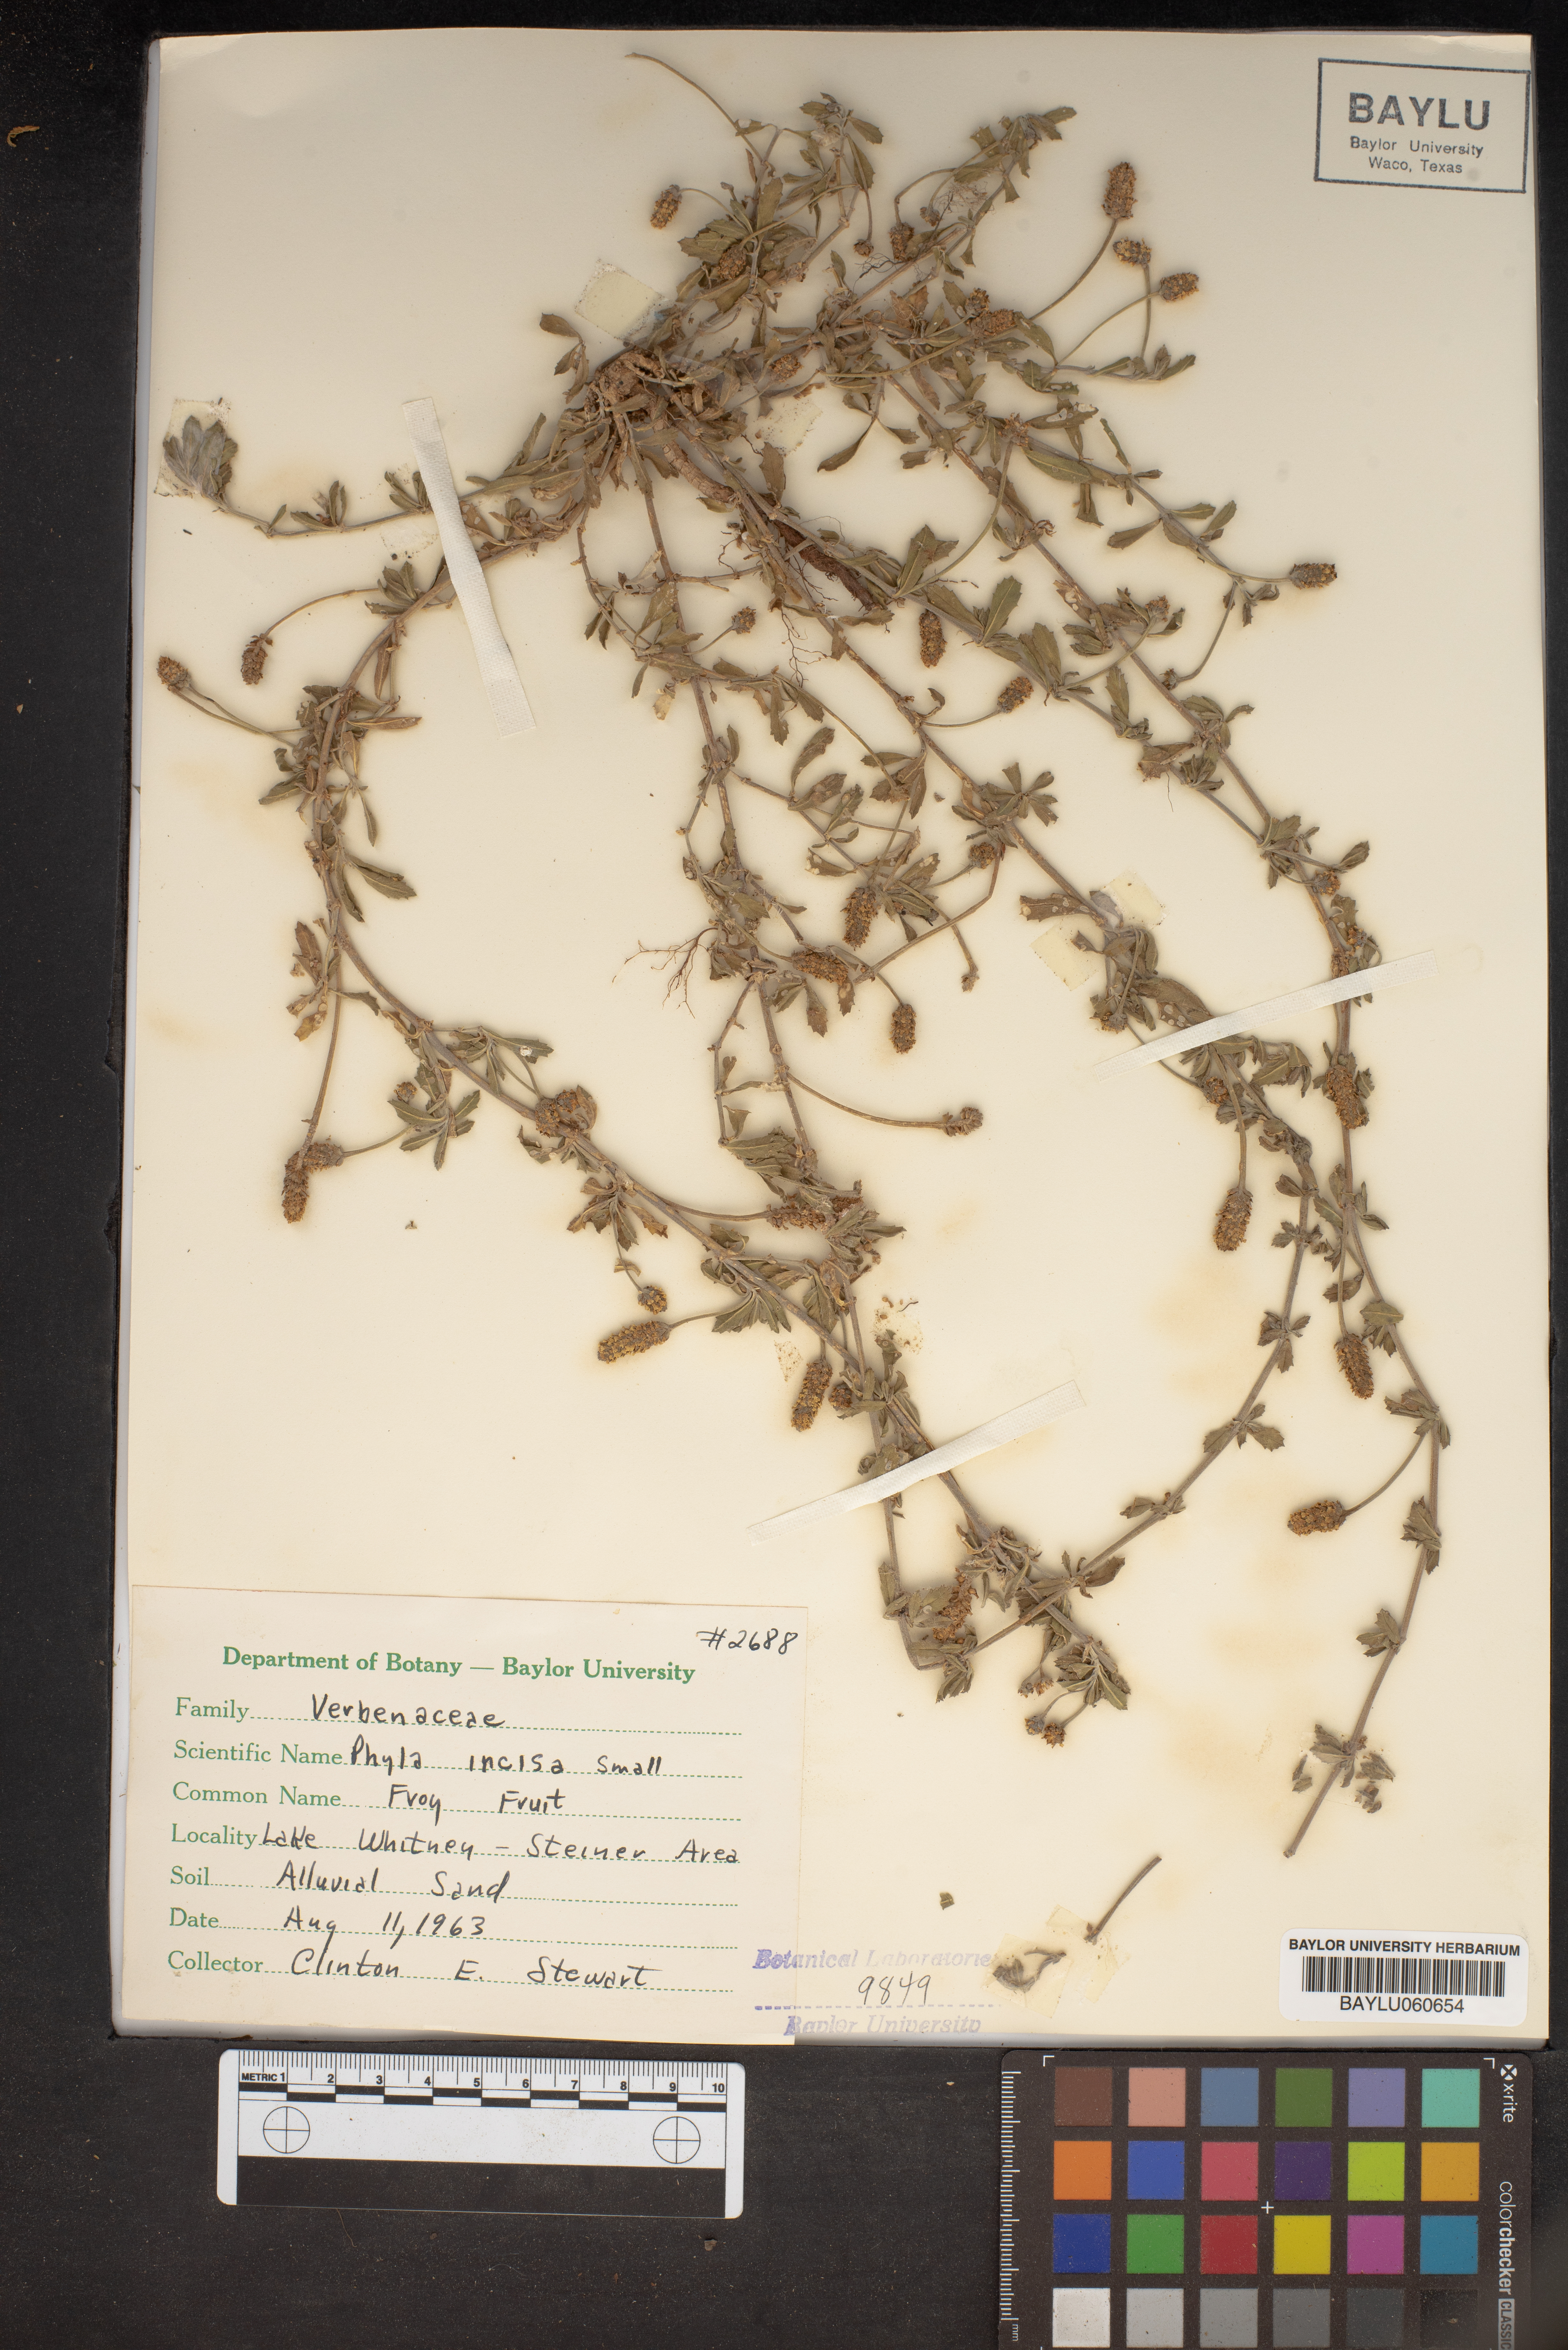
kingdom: Plantae
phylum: Tracheophyta
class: Magnoliopsida
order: Lamiales
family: Verbenaceae
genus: Phyla
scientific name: Phyla nodiflora
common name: Frogfruit
